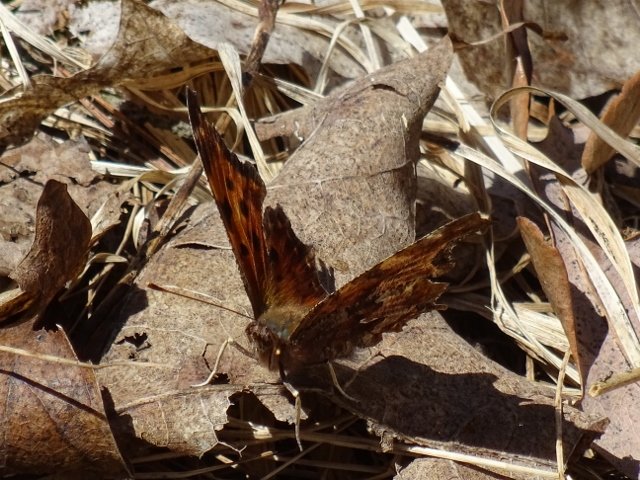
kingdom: Animalia
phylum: Arthropoda
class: Insecta
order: Lepidoptera
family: Nymphalidae
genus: Polygonia
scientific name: Polygonia comma
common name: Eastern Comma
